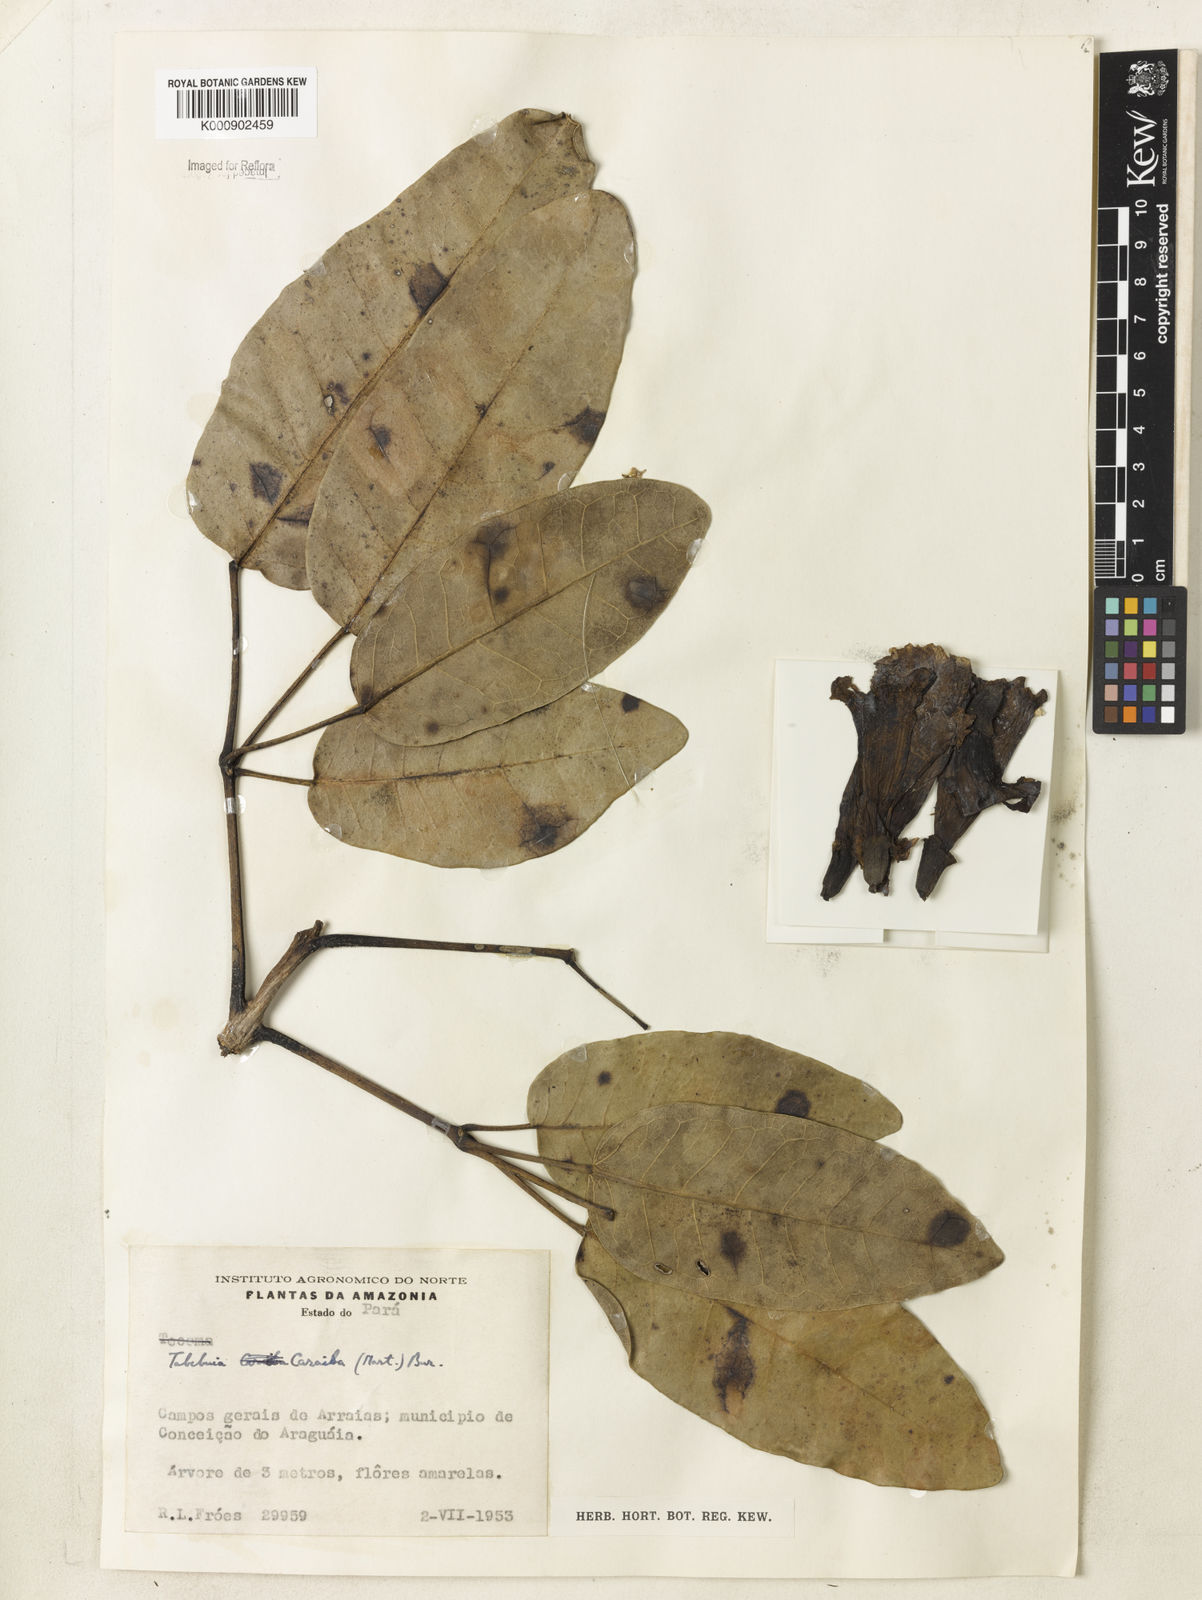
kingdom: Plantae
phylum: Tracheophyta
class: Magnoliopsida
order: Lamiales
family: Bignoniaceae
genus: Tabebuia
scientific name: Tabebuia aurea
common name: Caribbean trumpet-tree
